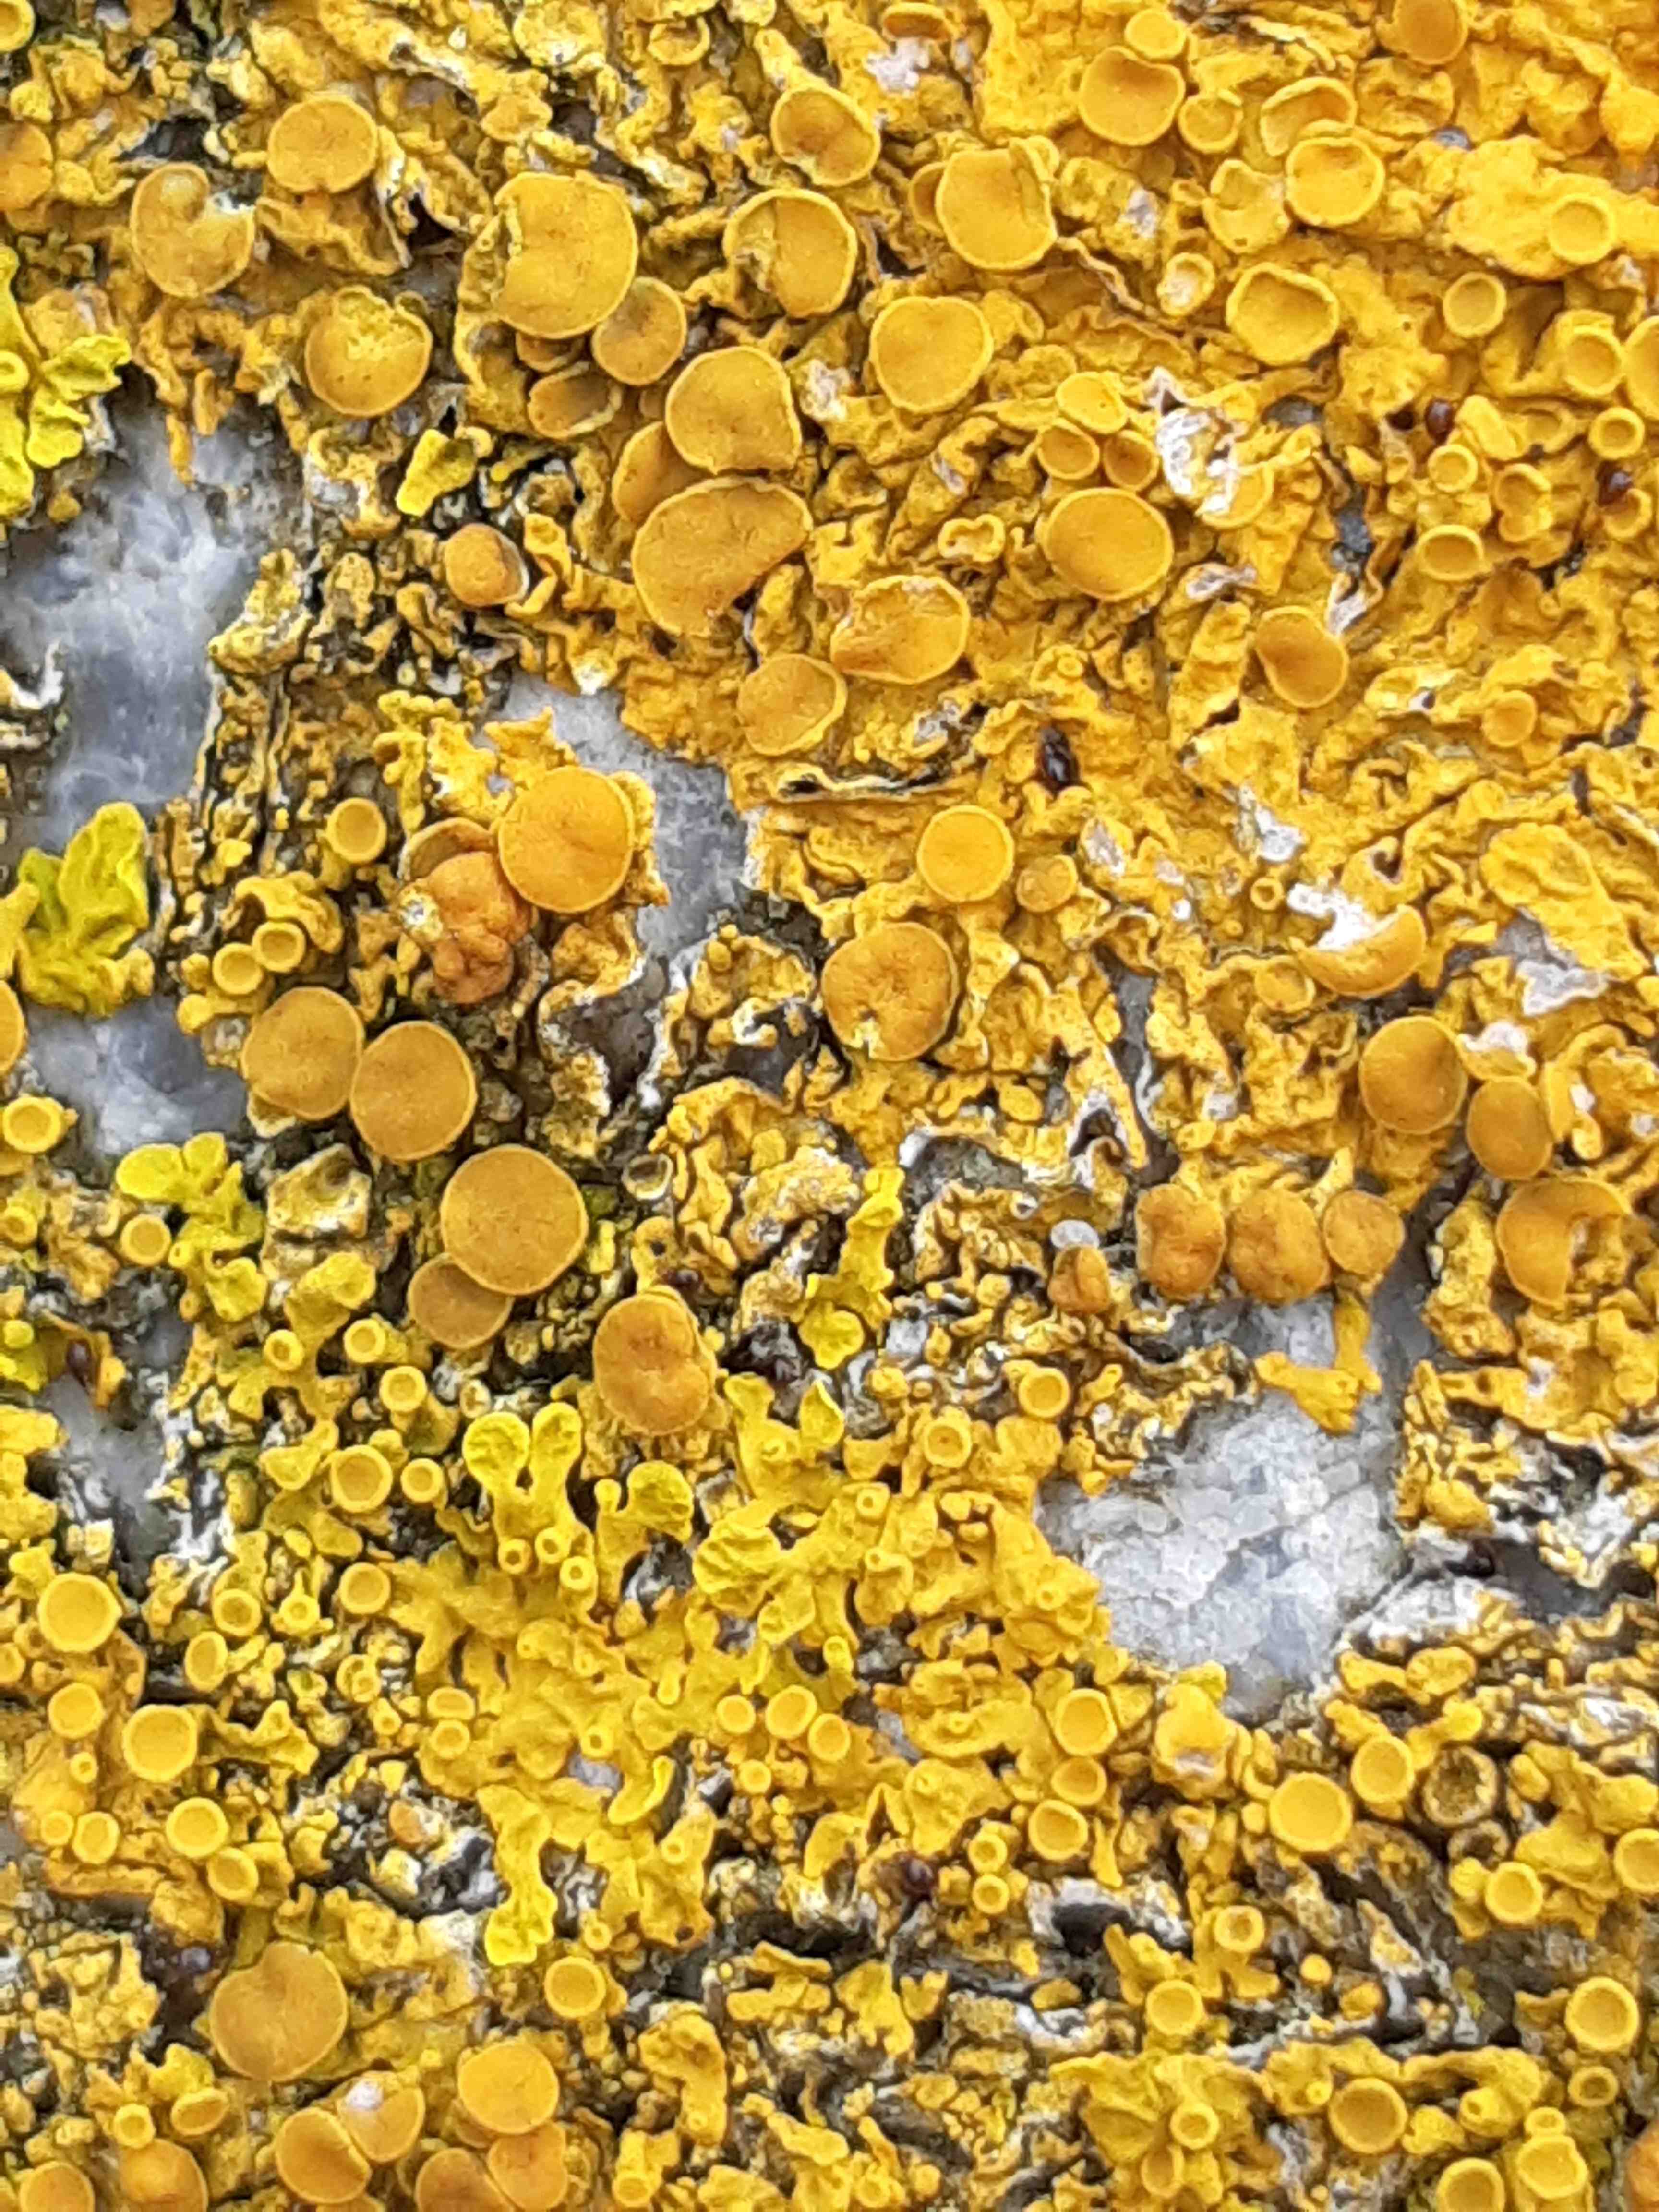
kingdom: Fungi
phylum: Ascomycota
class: Lecanoromycetes
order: Teloschistales
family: Teloschistaceae
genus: Xanthoria
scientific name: Xanthoria parietina
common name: almindelig væggelav
